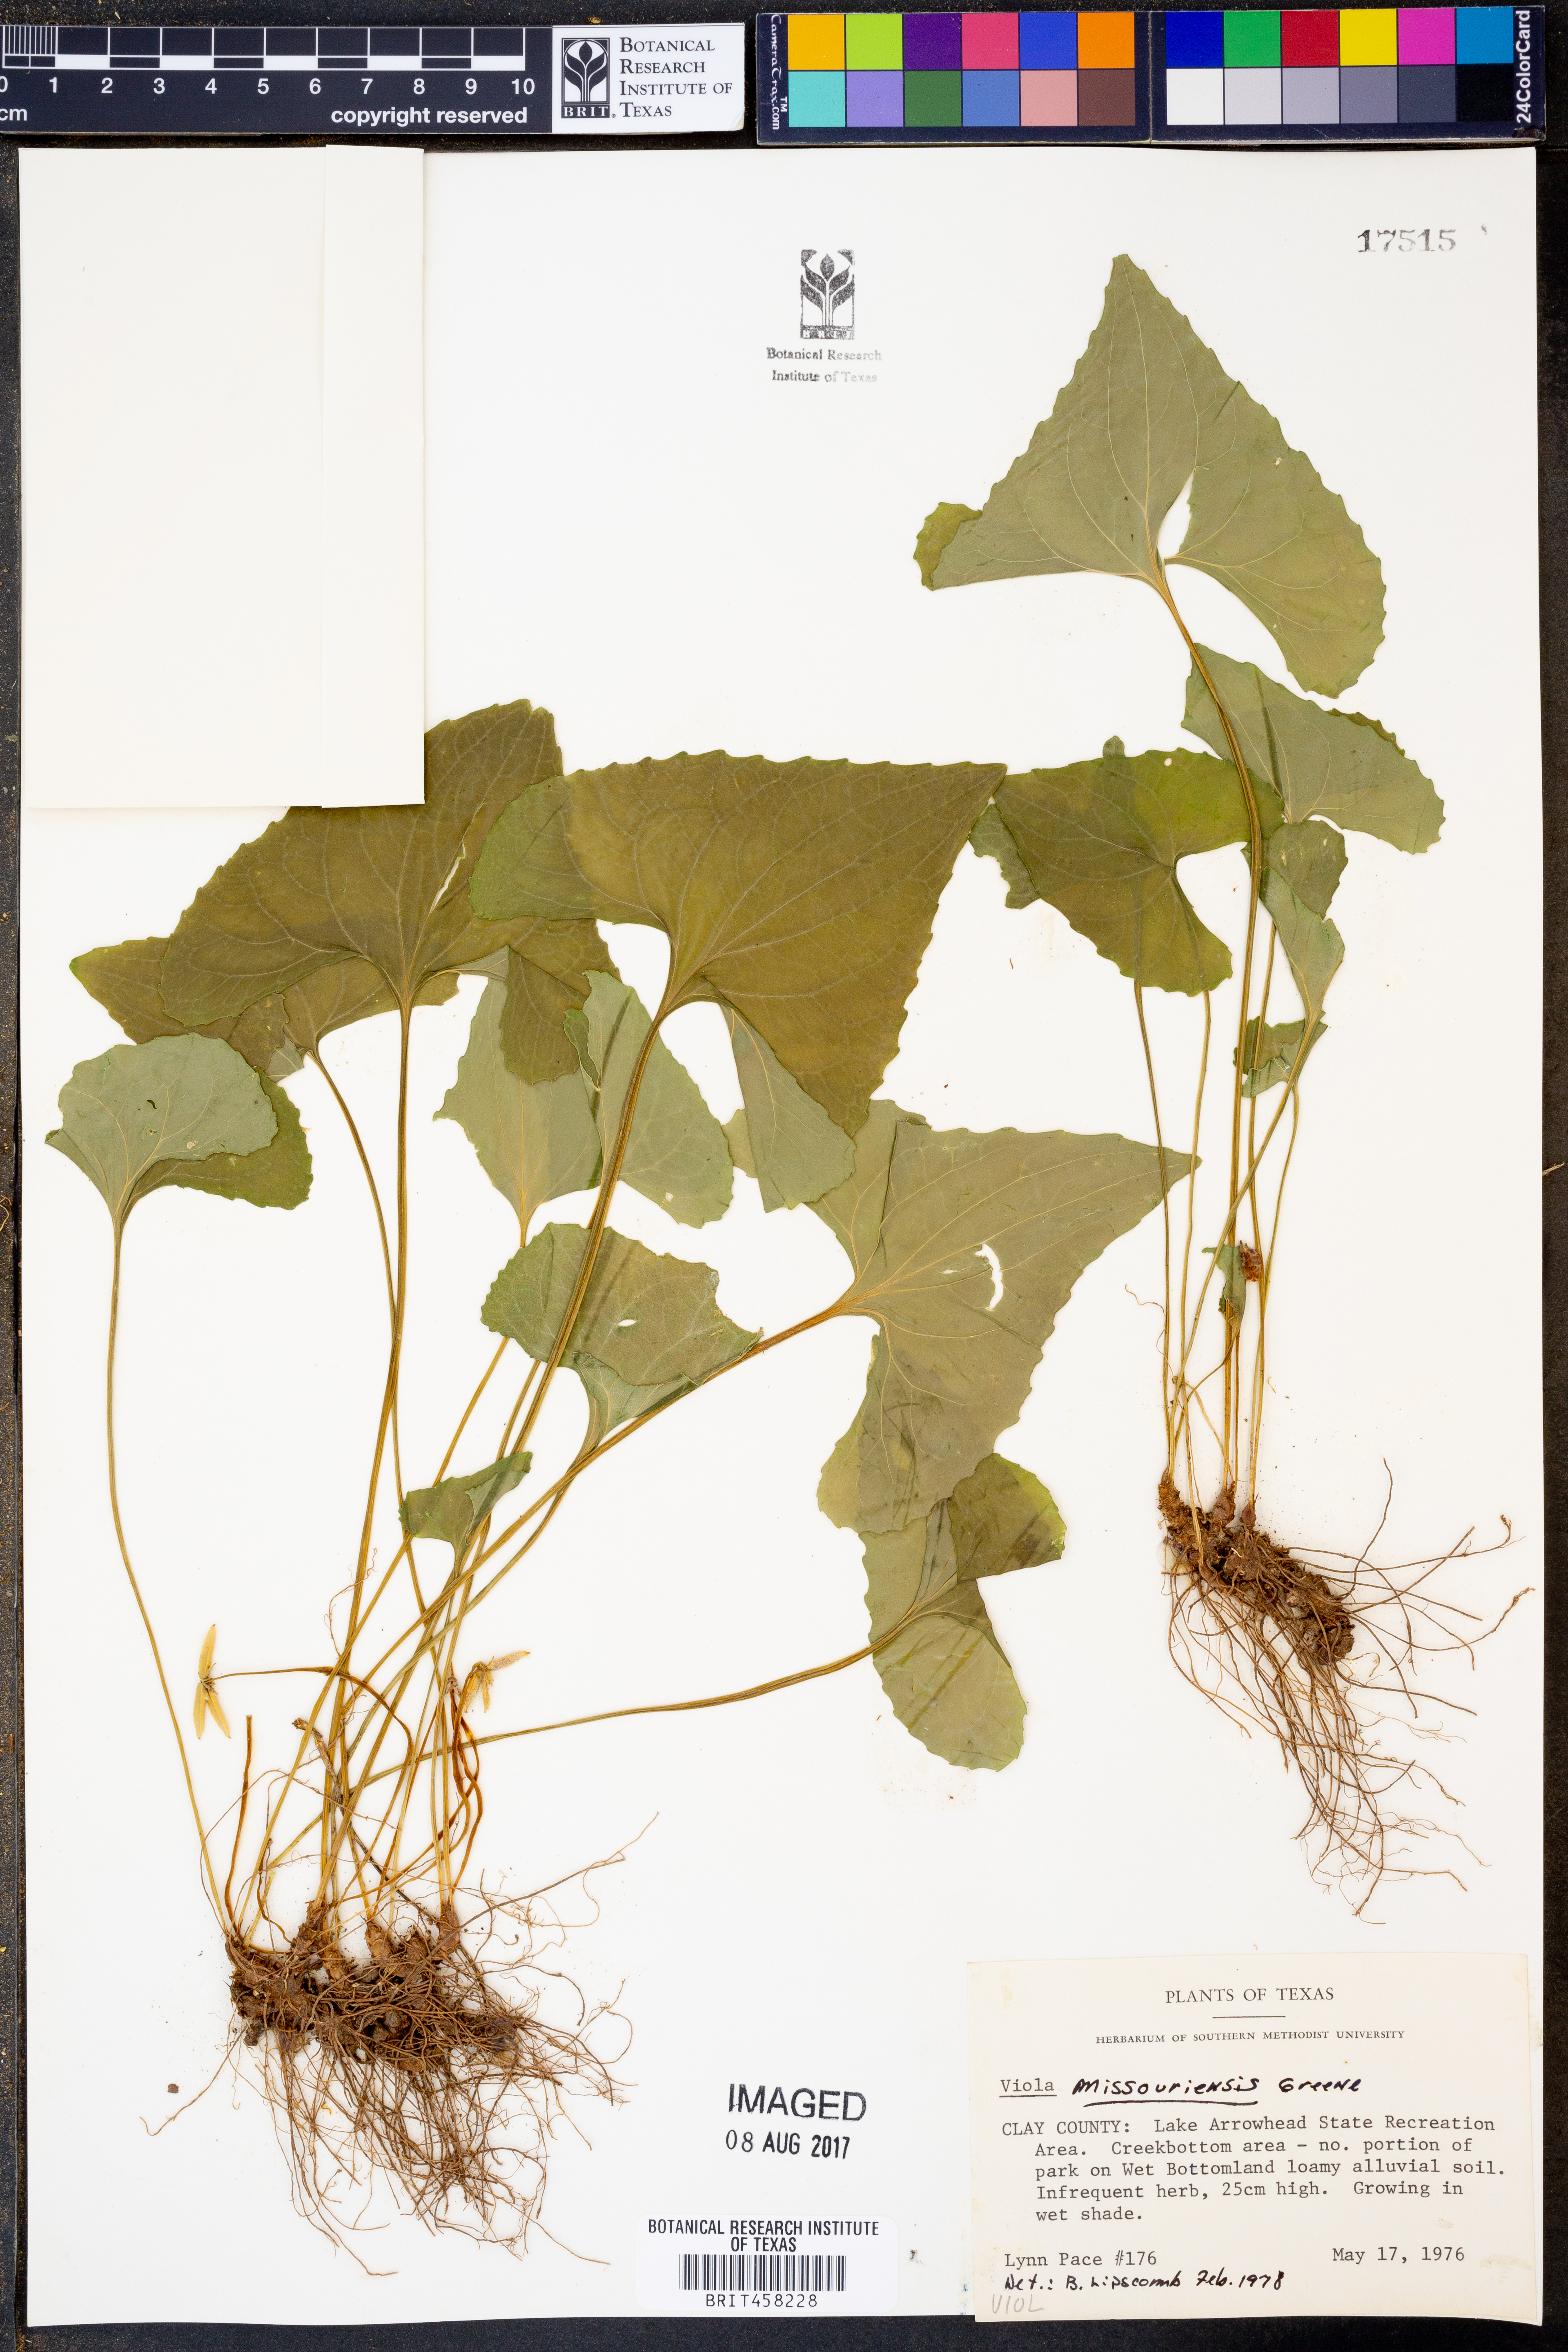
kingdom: Plantae
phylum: Tracheophyta
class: Magnoliopsida
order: Malpighiales
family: Violaceae
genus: Viola
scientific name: Viola missouriensis
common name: Missouri violet
